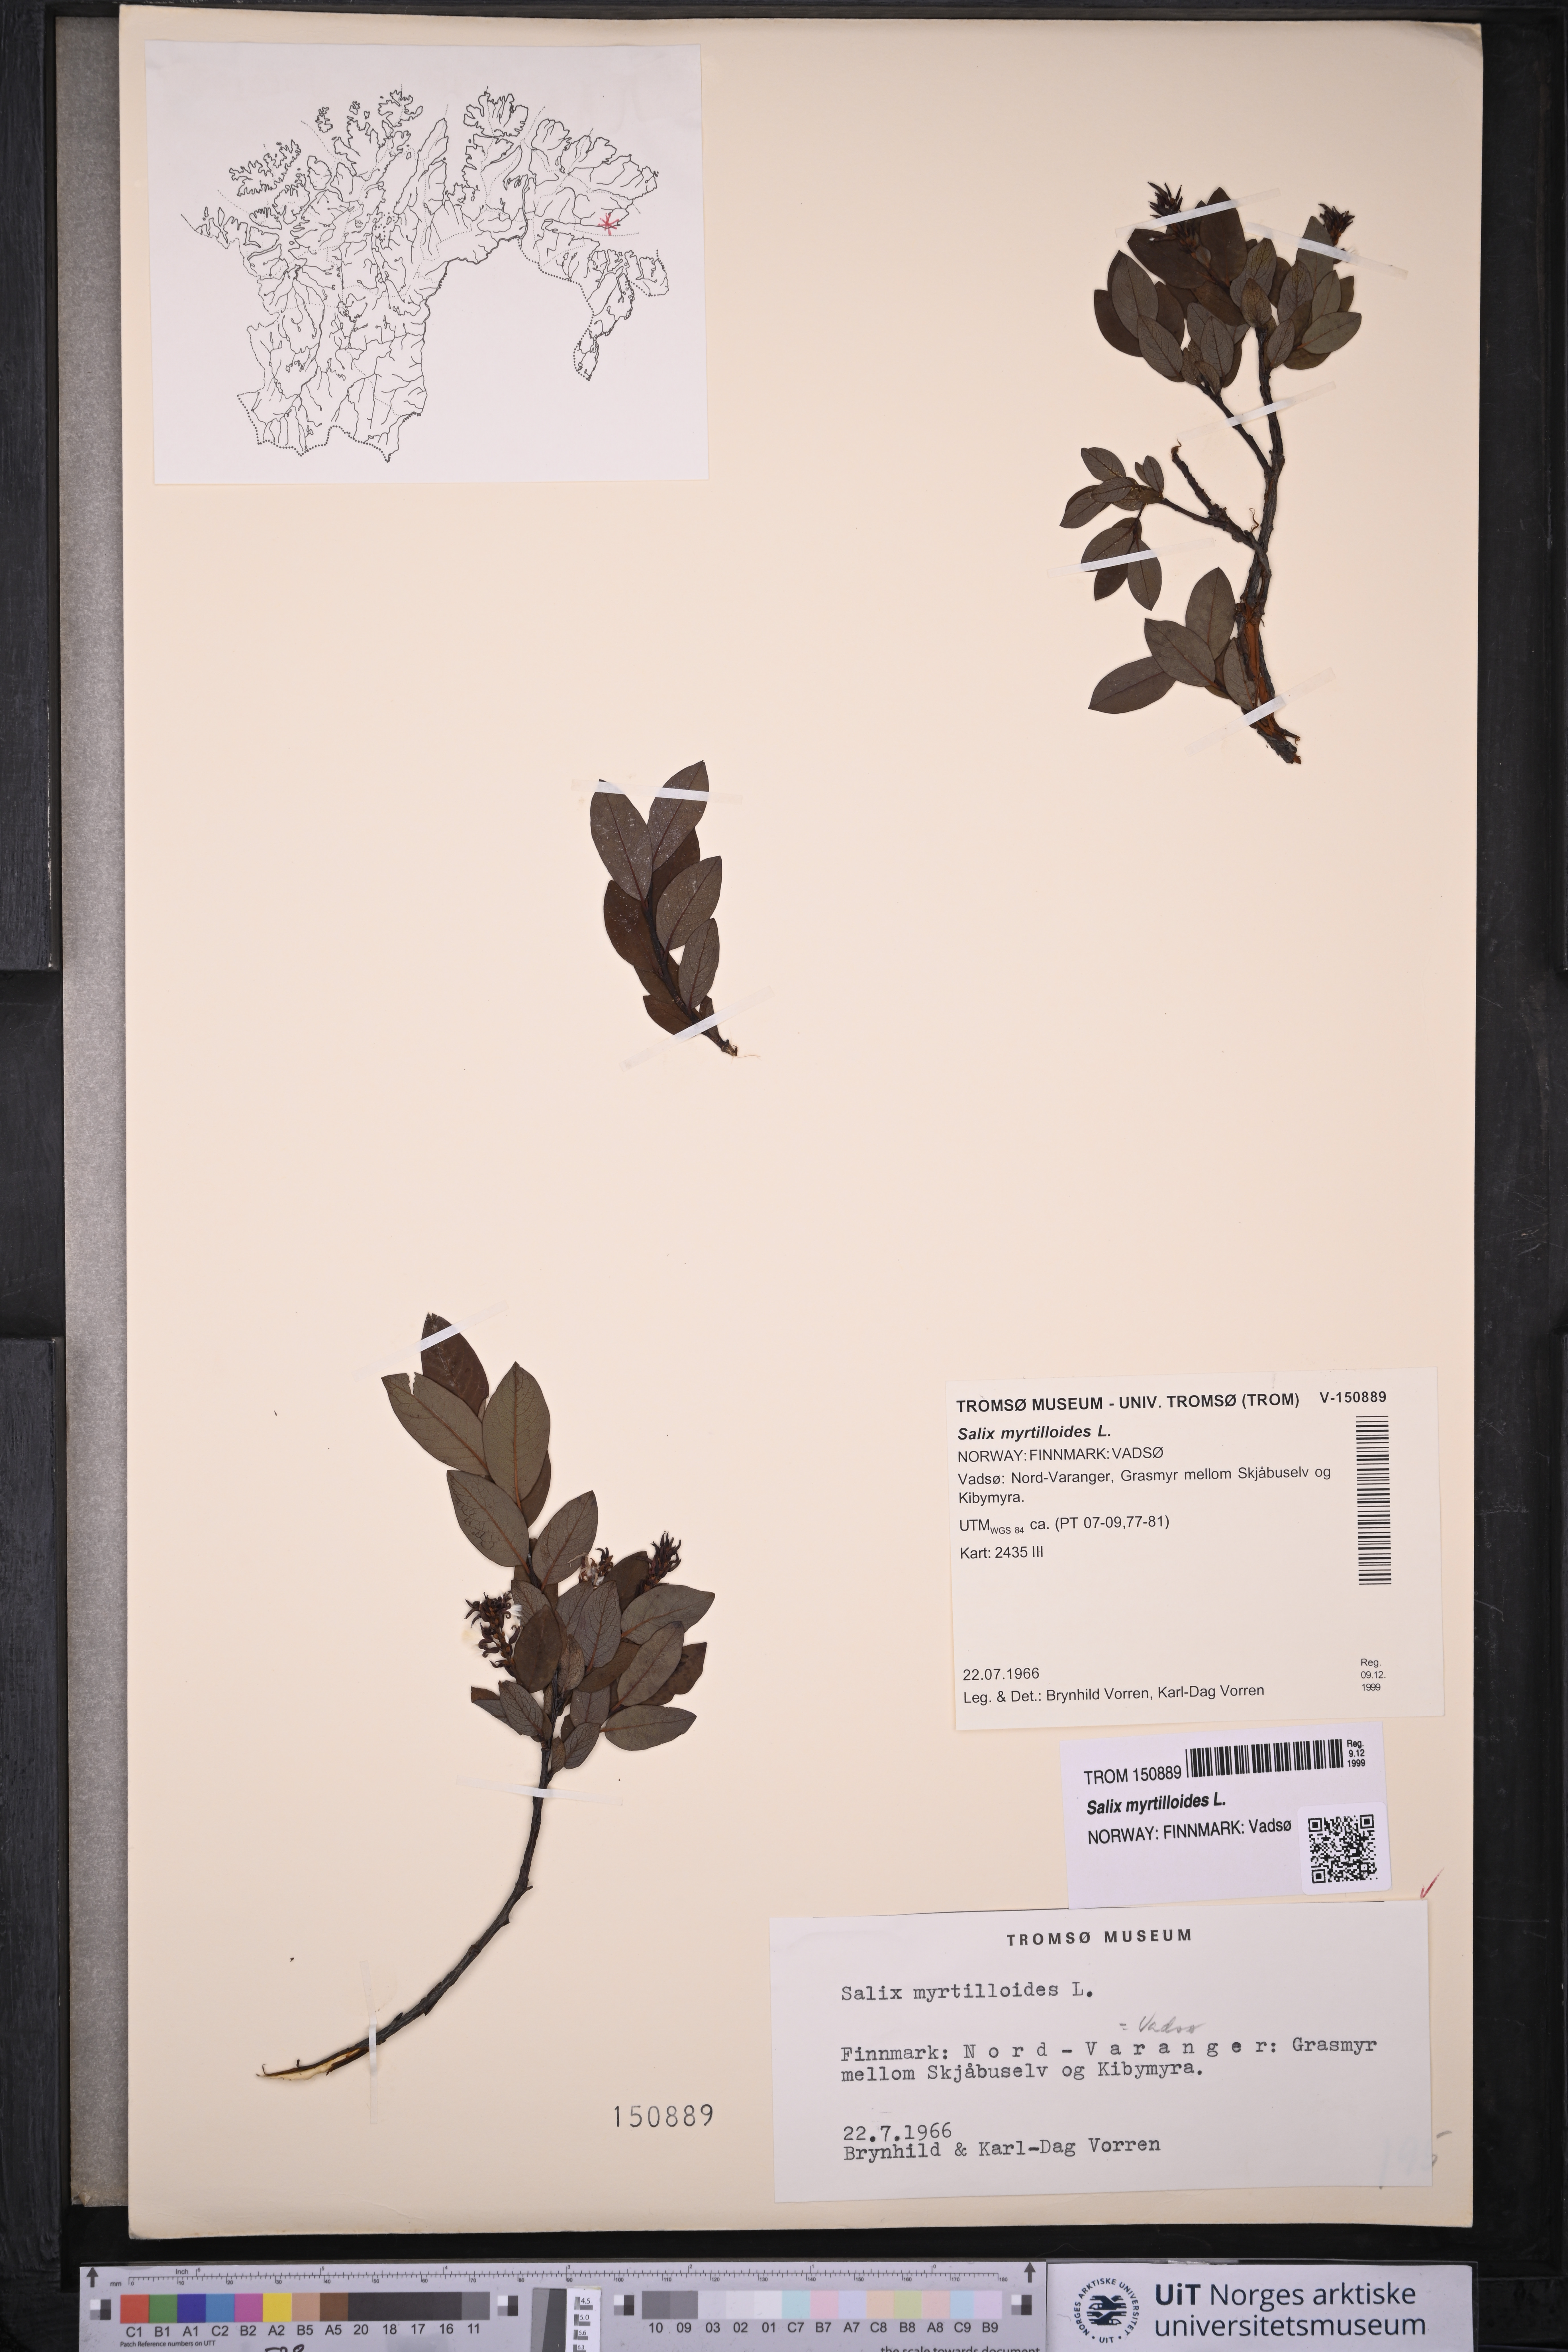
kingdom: Plantae
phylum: Tracheophyta
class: Magnoliopsida
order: Malpighiales
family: Salicaceae
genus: Salix
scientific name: Salix myrtilloides
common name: Myrtle-leaved willow
